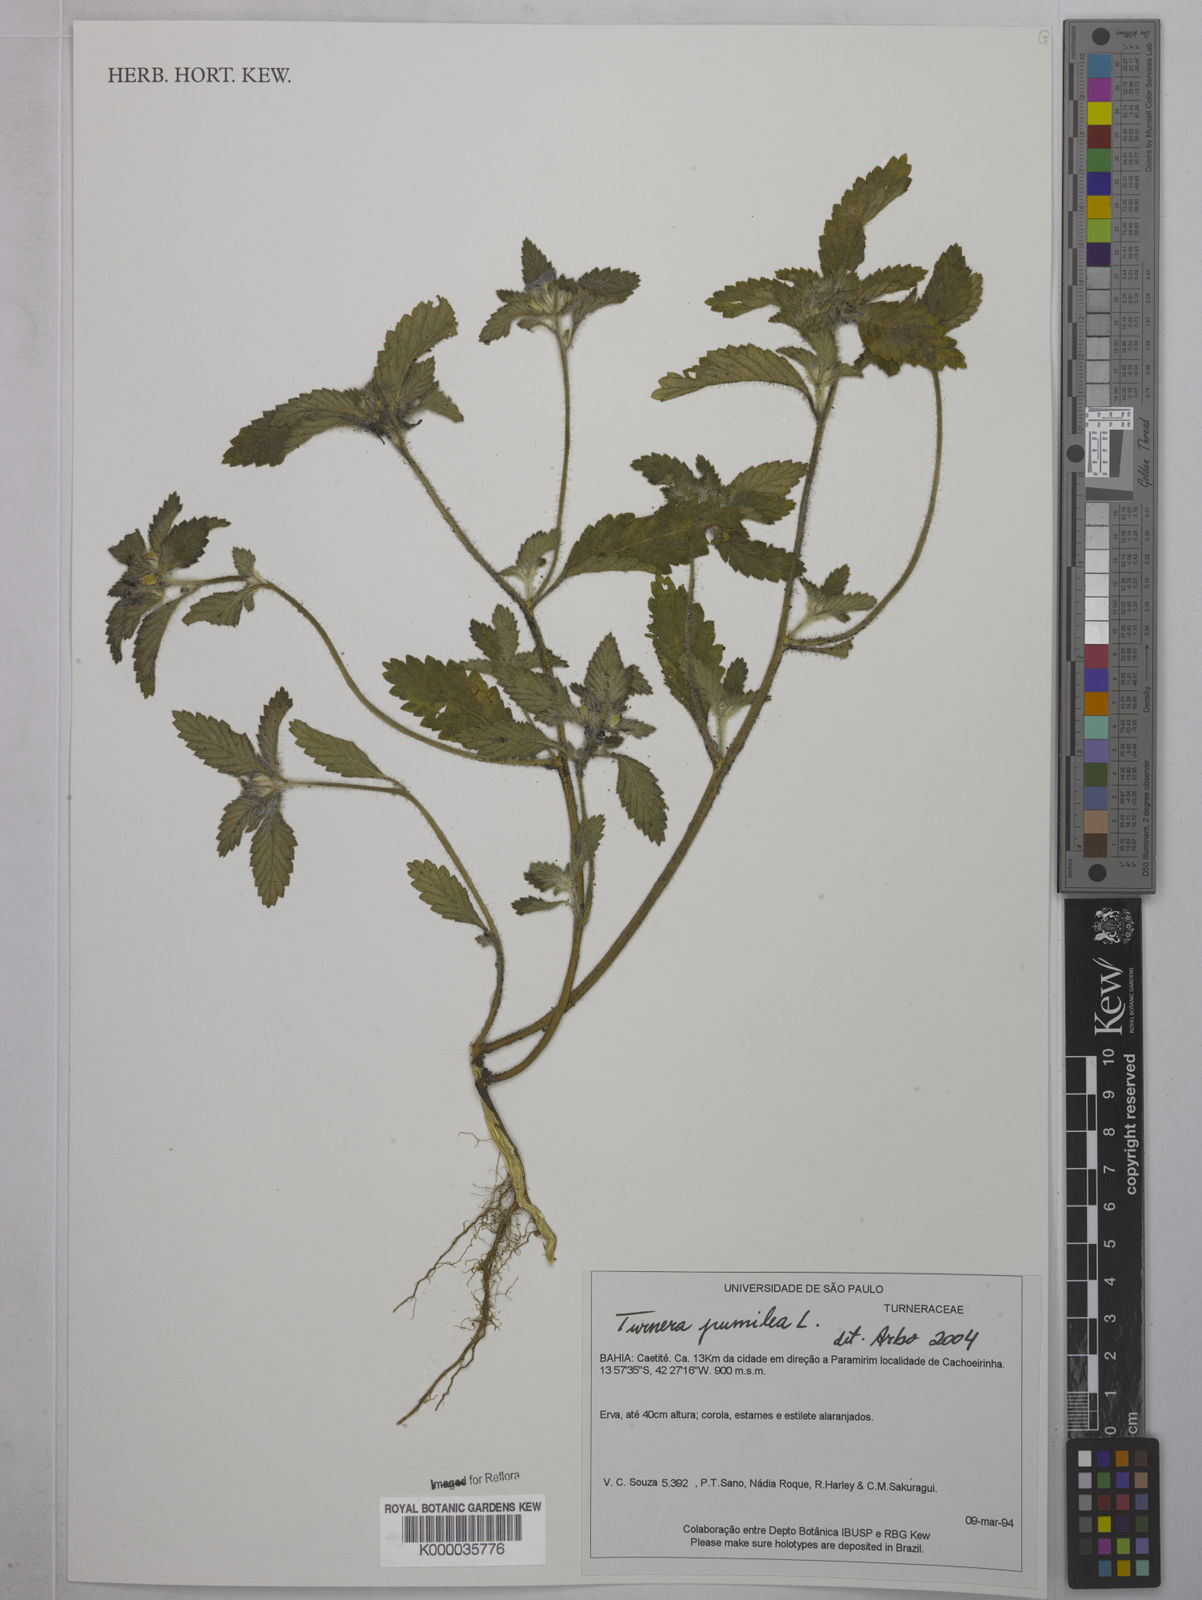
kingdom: Plantae
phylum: Tracheophyta
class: Magnoliopsida
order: Malpighiales
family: Turneraceae
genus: Turnera
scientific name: Turnera pumilea
